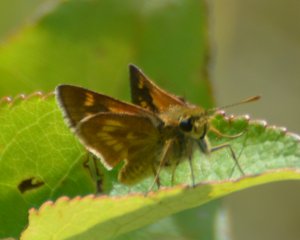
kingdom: Animalia
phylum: Arthropoda
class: Insecta
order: Lepidoptera
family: Hesperiidae
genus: Polites
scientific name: Polites
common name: Long Dash Skipper
